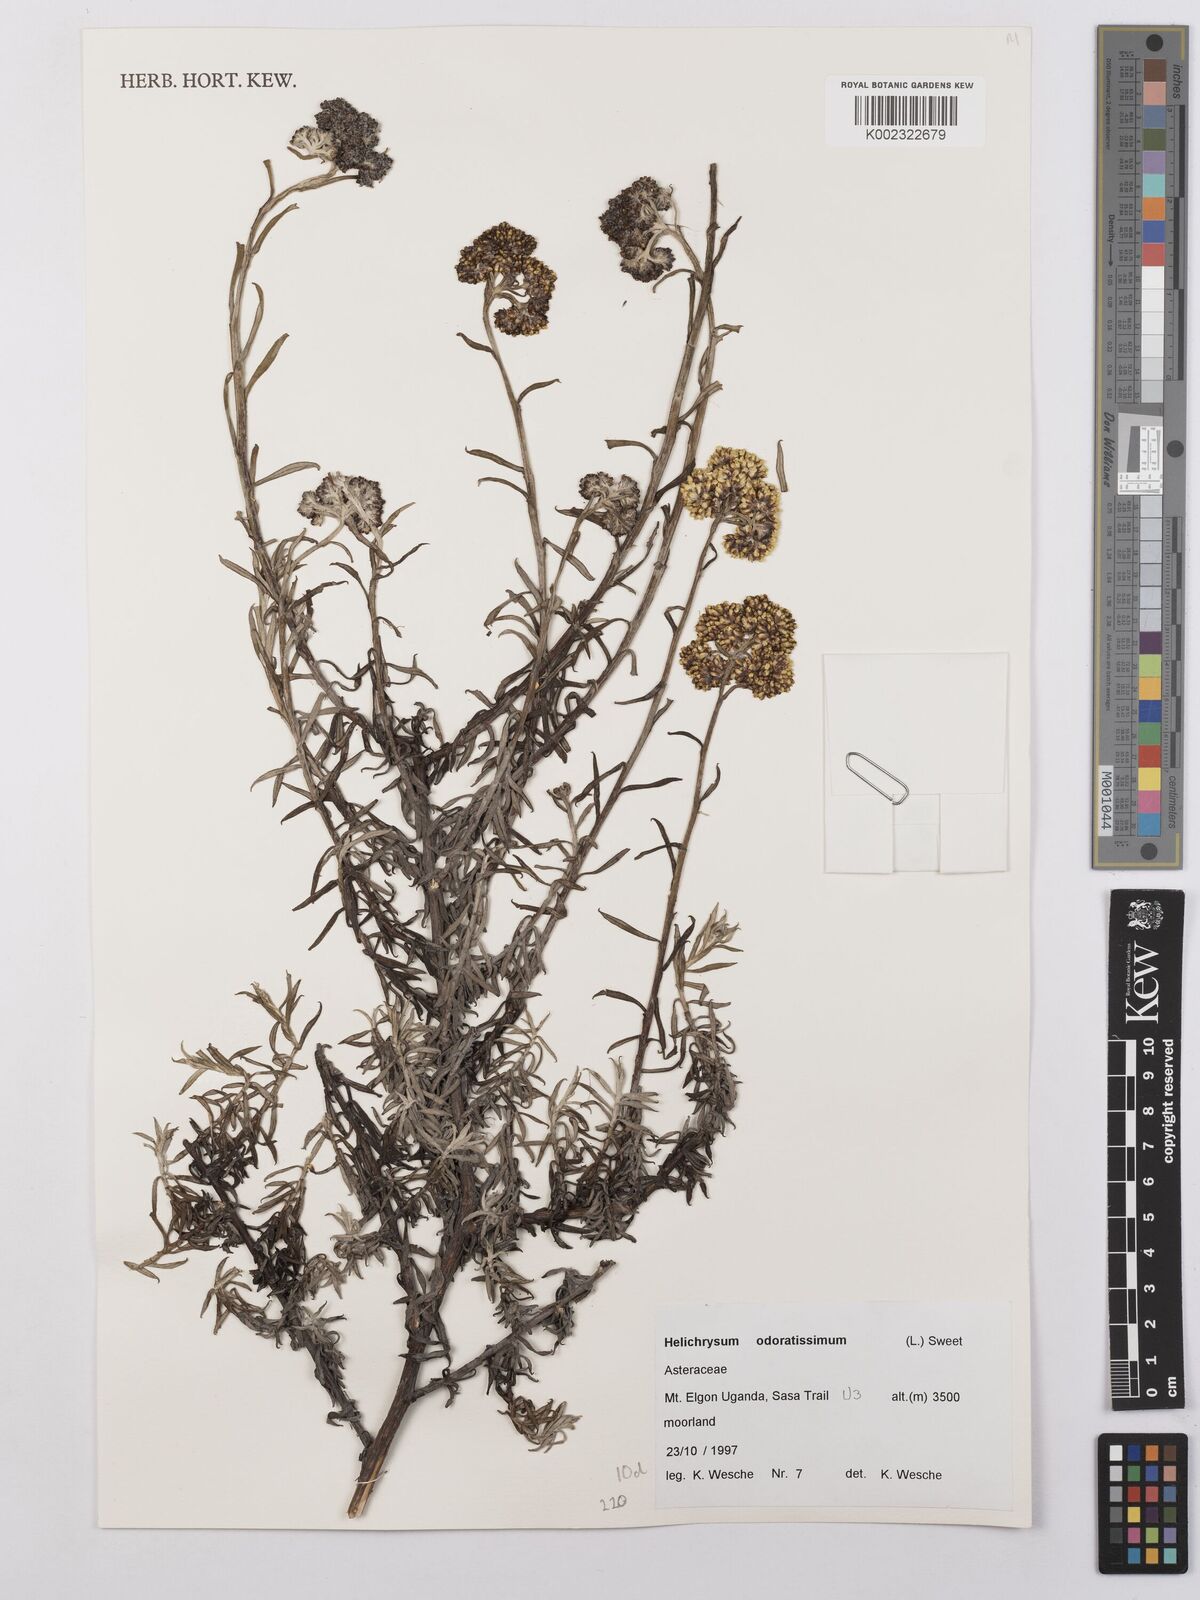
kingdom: Plantae
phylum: Tracheophyta
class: Magnoliopsida
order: Asterales
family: Asteraceae
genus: Helichrysum
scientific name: Helichrysum odoratissimum
